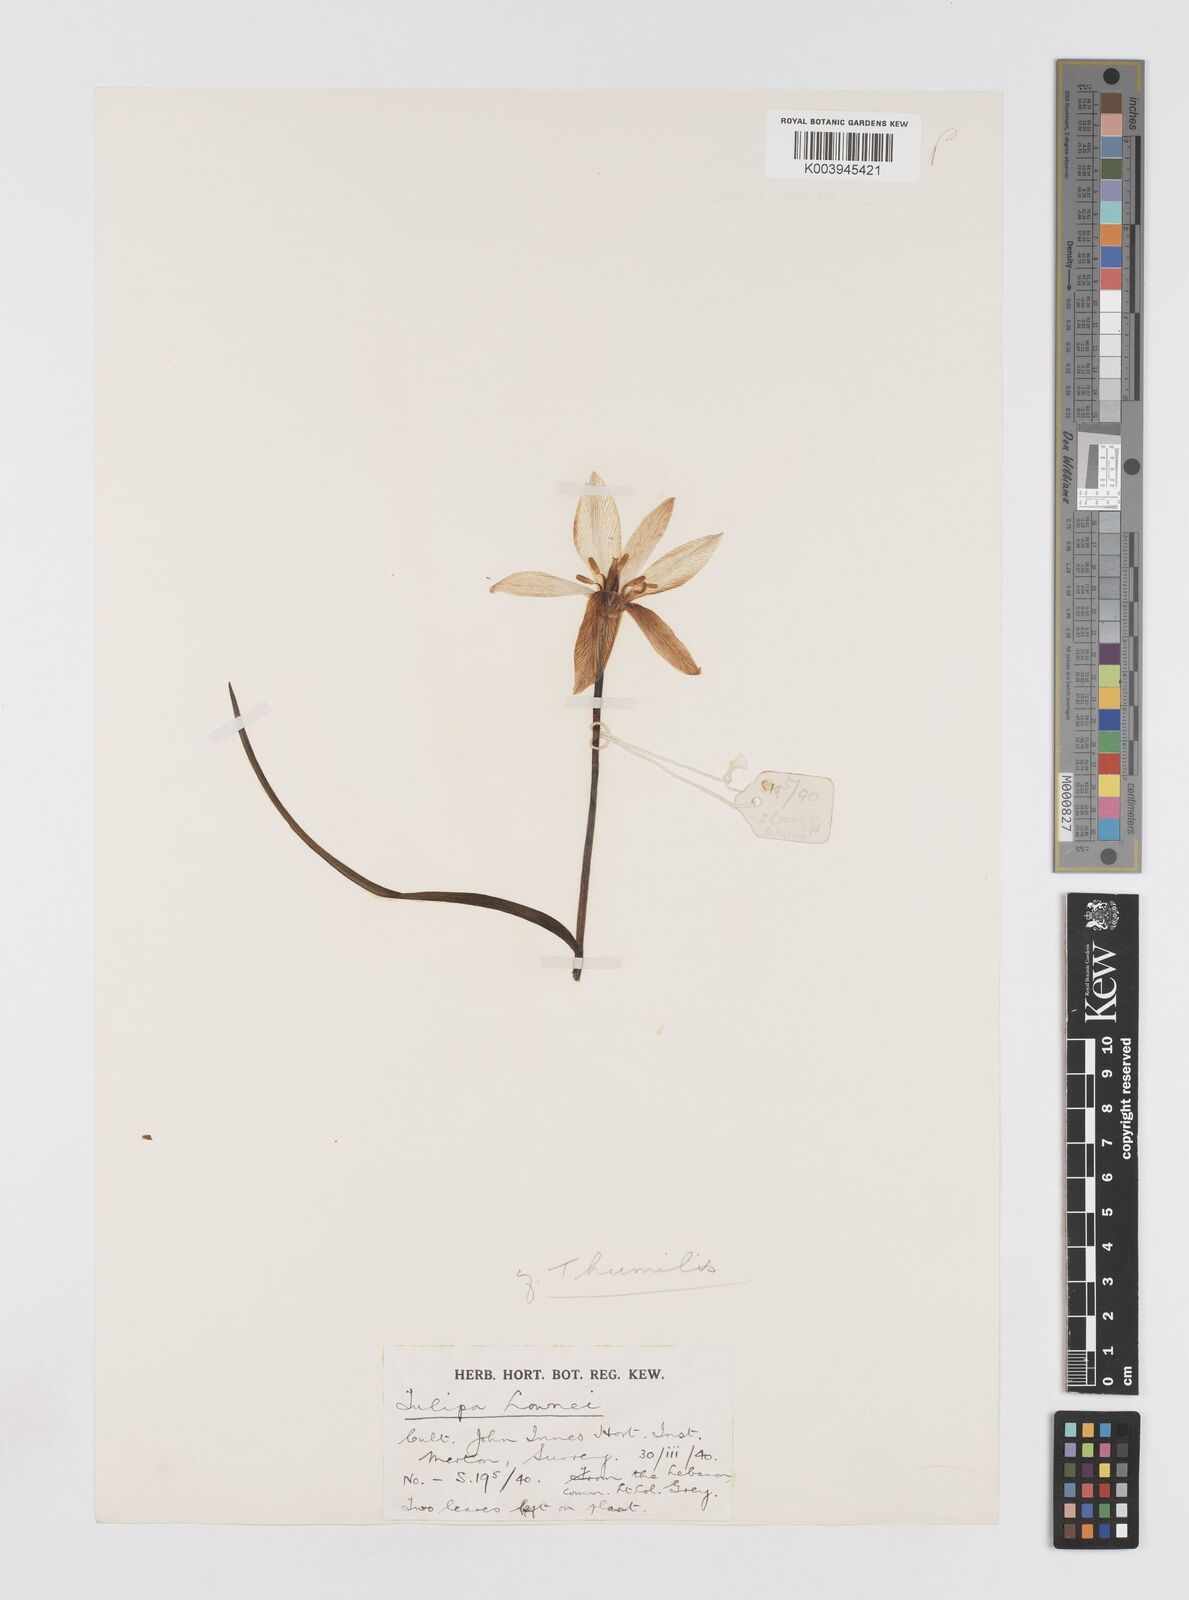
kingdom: Plantae
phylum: Tracheophyta
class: Liliopsida
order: Liliales
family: Liliaceae
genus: Tulipa
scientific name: Tulipa humilis
